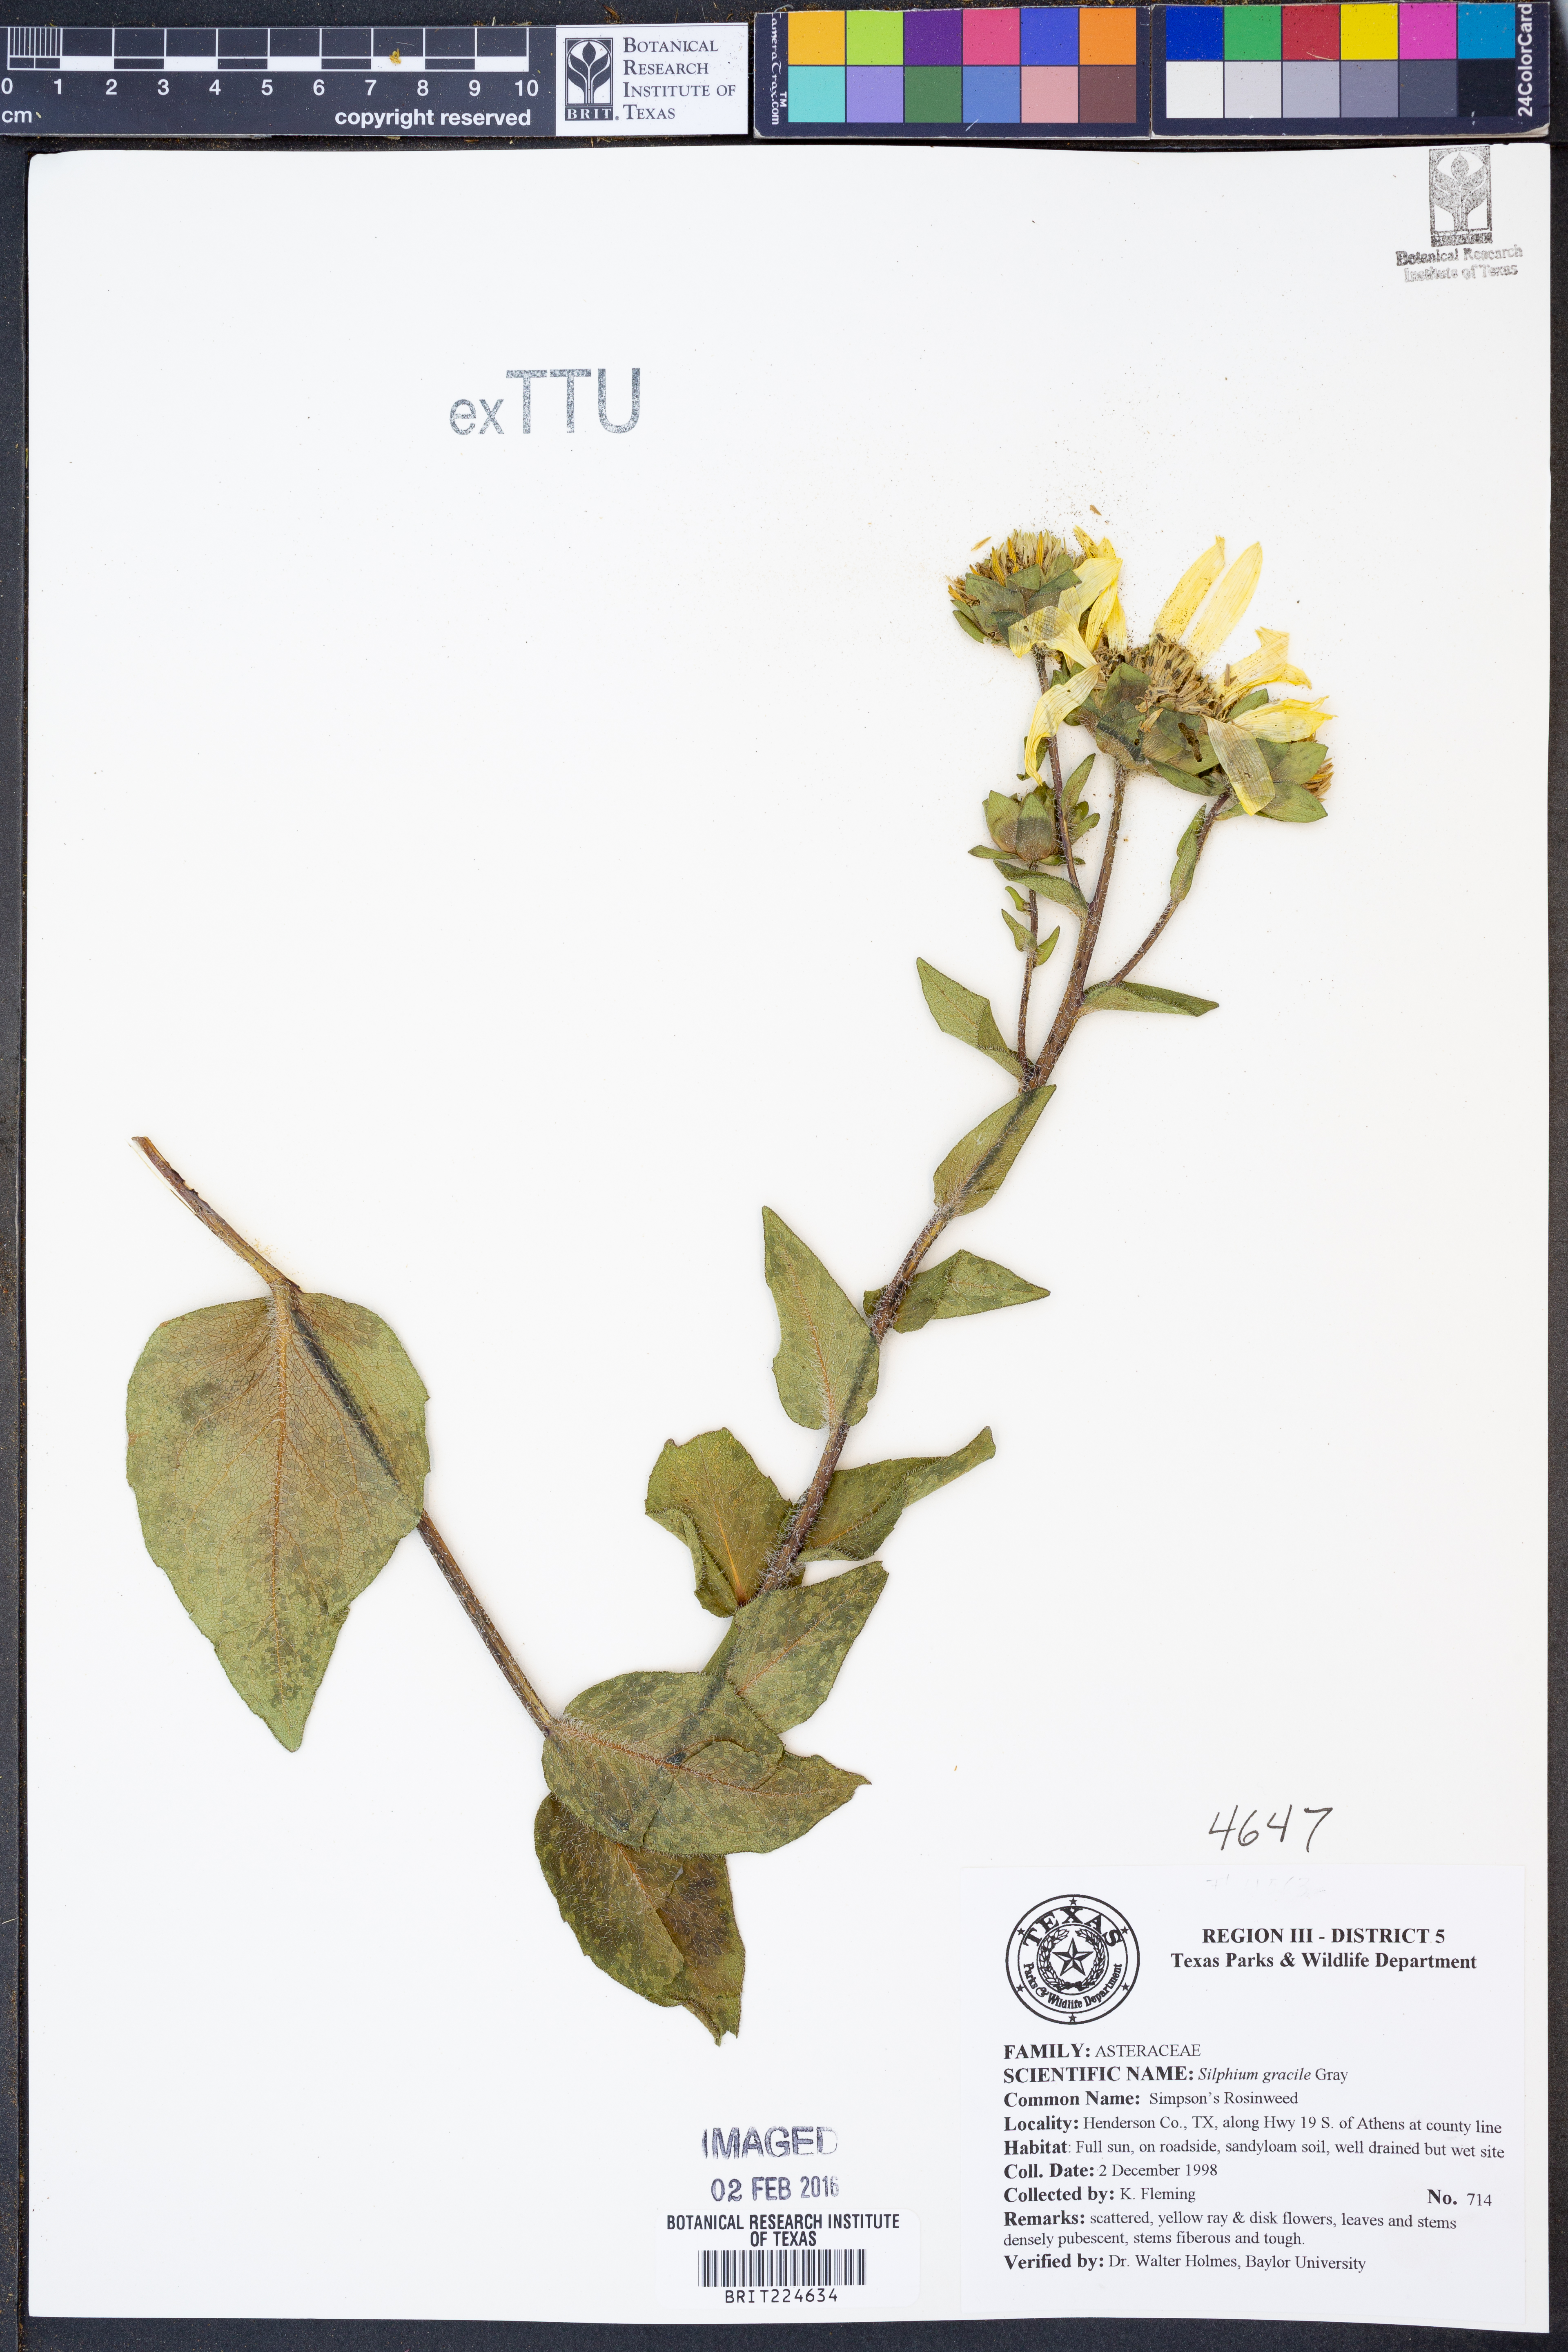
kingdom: Plantae
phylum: Tracheophyta
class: Magnoliopsida
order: Asterales
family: Asteraceae
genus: Silphium
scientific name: Silphium radula
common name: Roughleaf rosinweed
